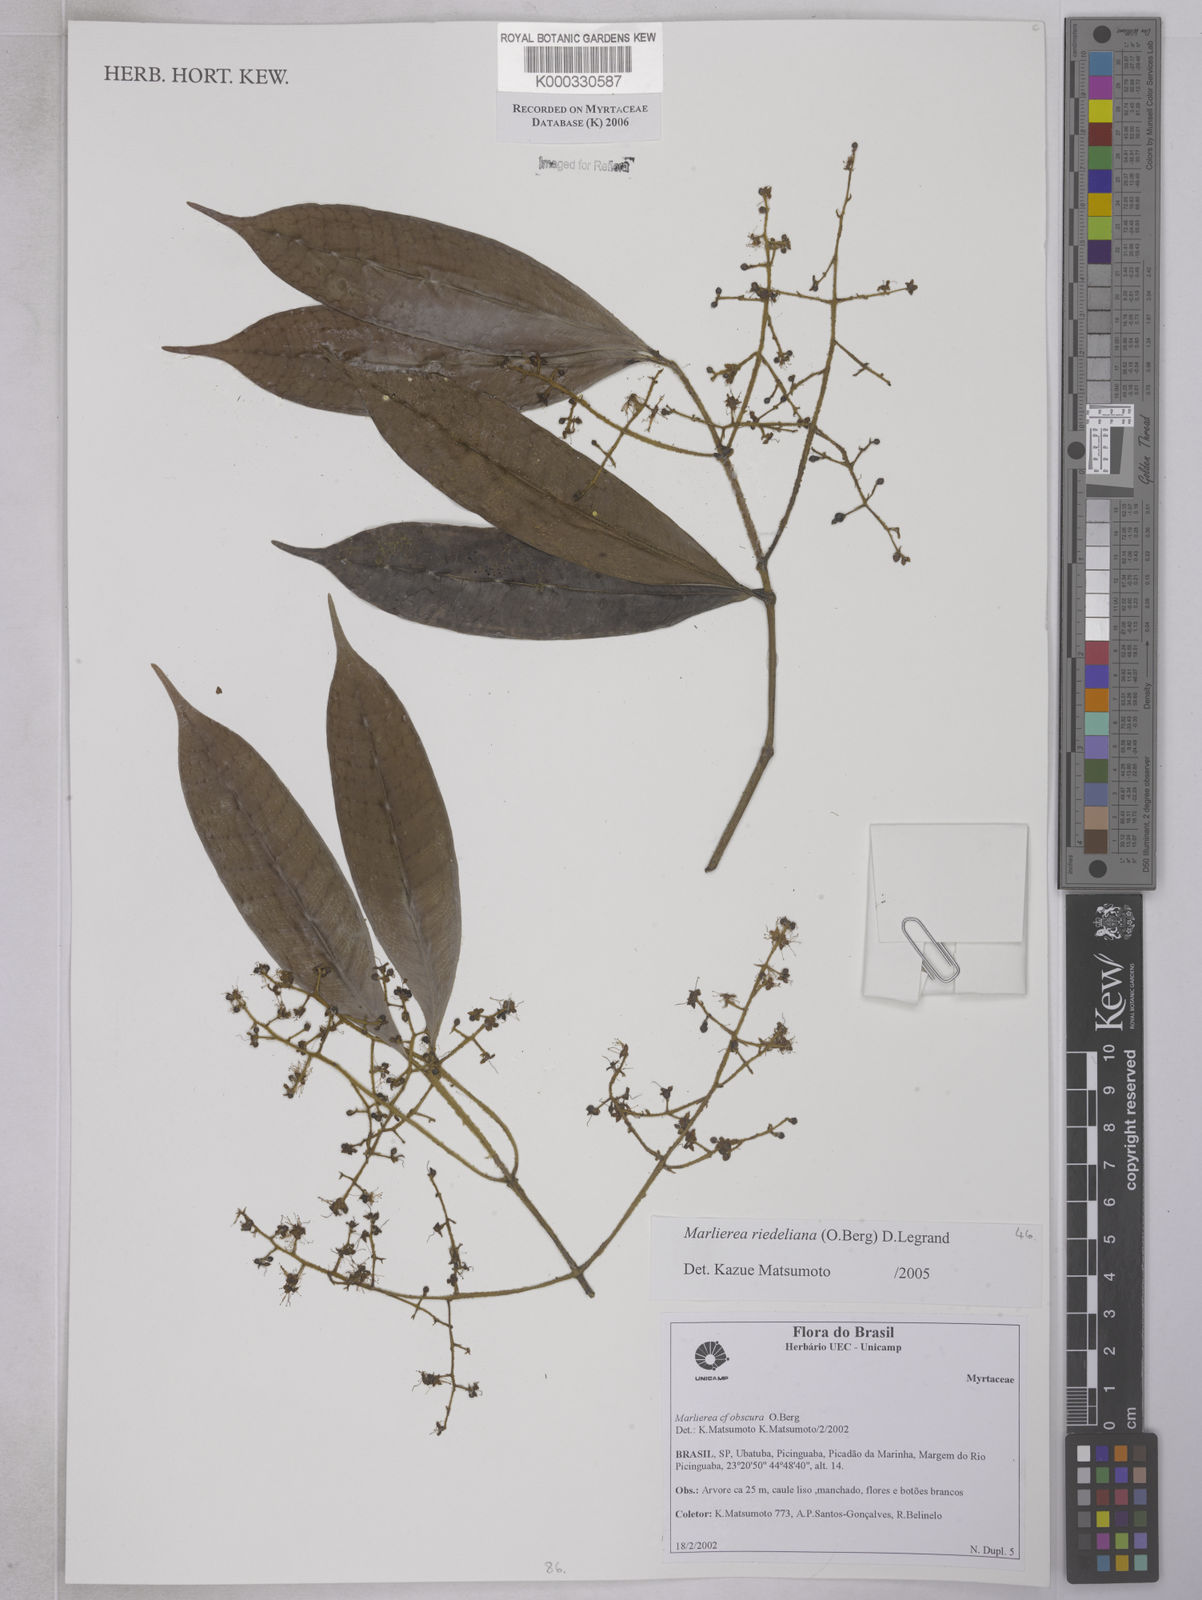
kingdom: Plantae
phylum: Tracheophyta
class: Magnoliopsida
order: Myrtales
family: Myrtaceae
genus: Myrcia
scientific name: Myrcia neoriedeliana
